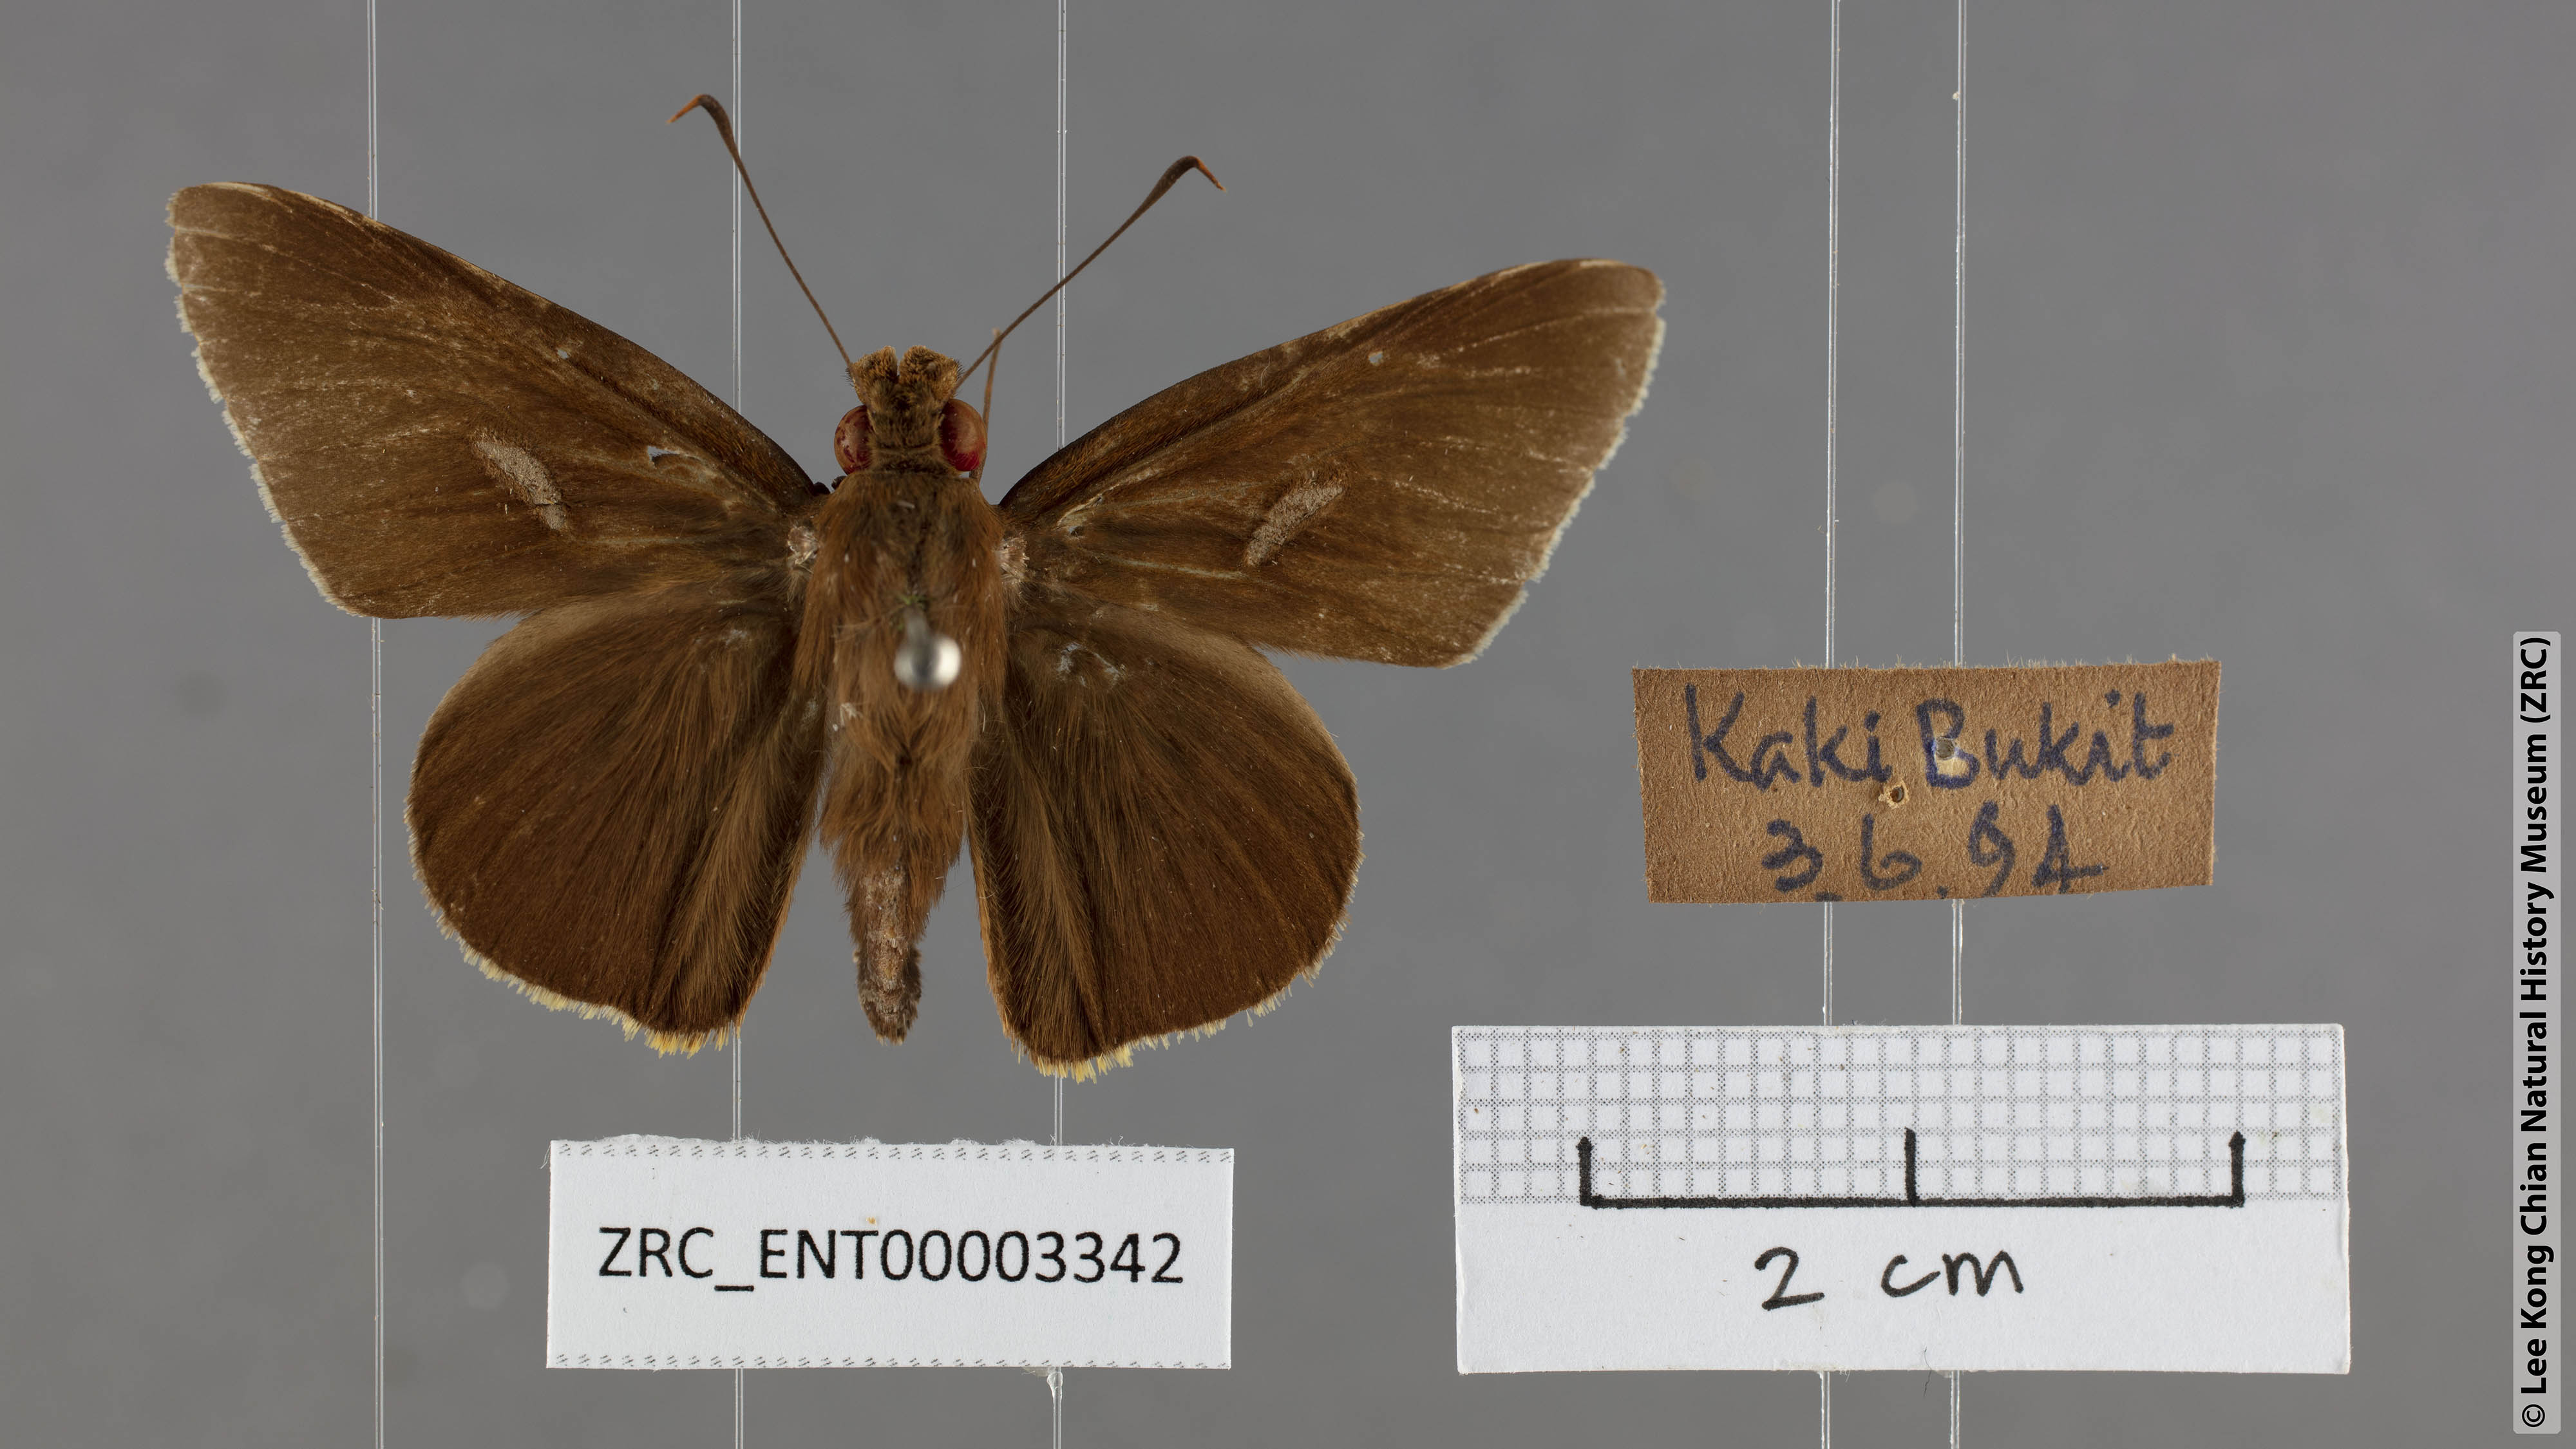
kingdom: Animalia
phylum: Arthropoda
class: Insecta
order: Lepidoptera
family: Hesperiidae
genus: Matapa
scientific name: Matapa cresta
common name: Fringed redeye
